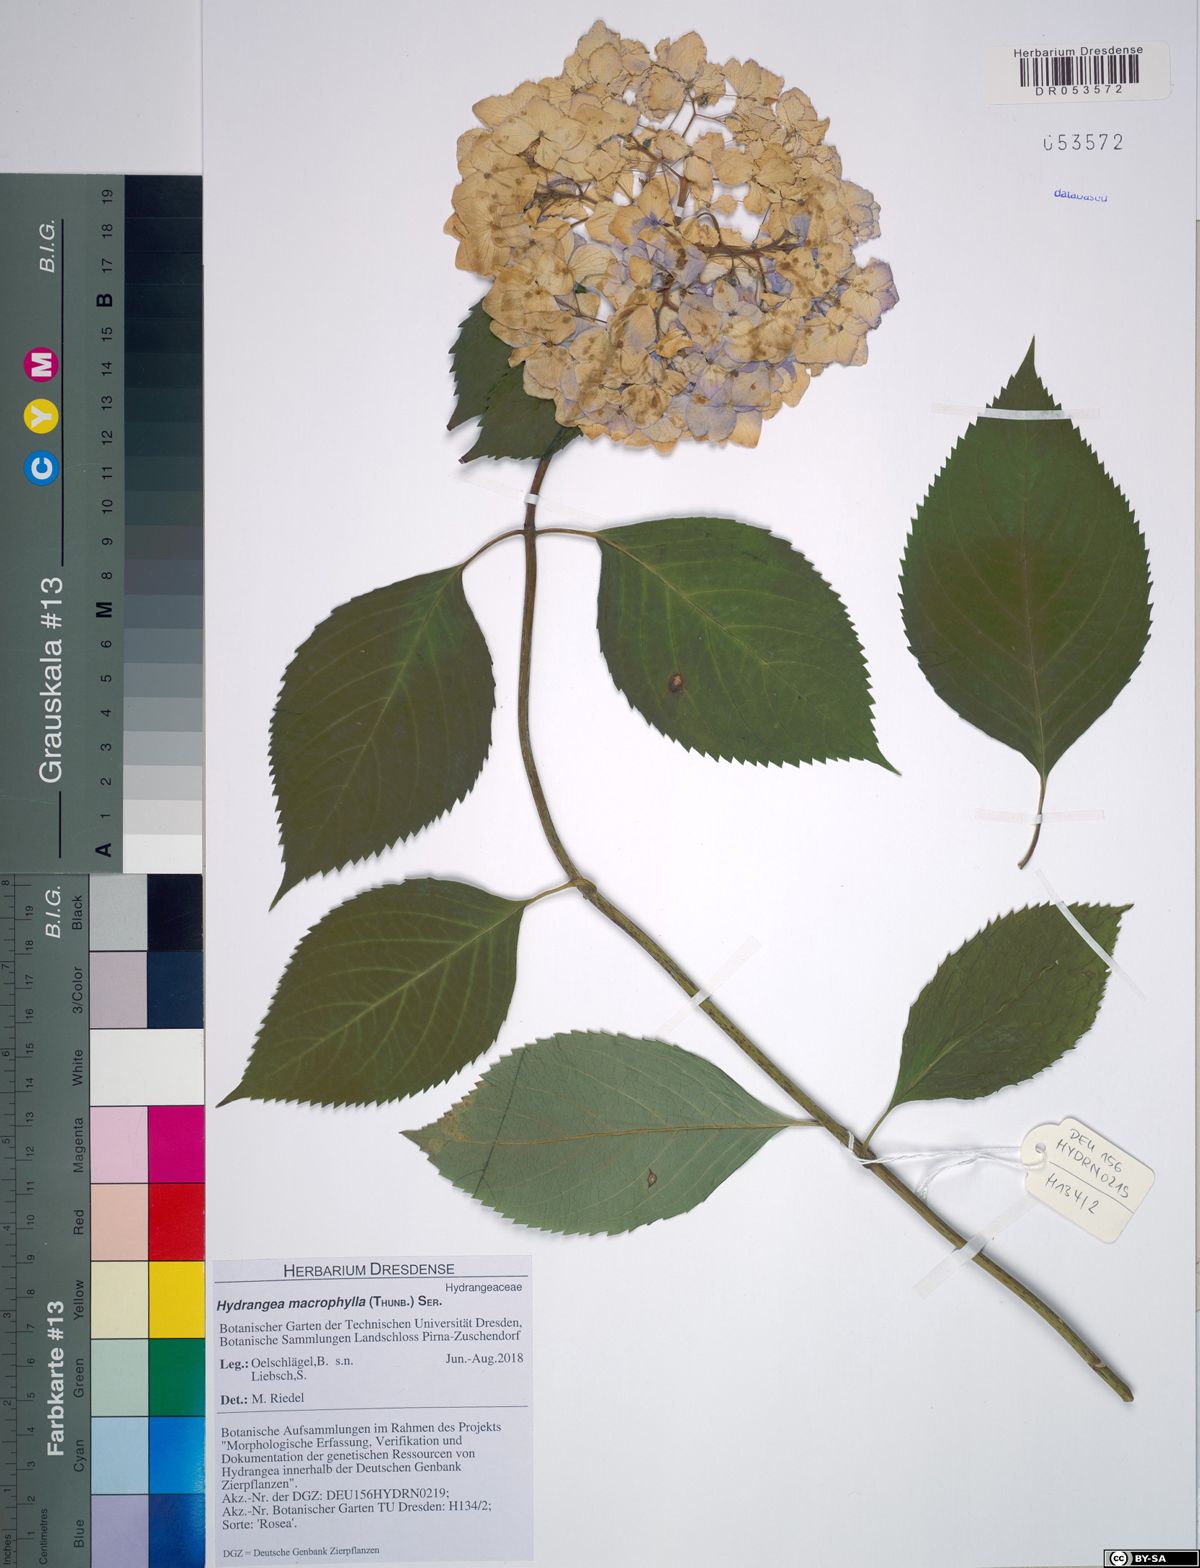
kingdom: Plantae
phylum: Tracheophyta
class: Magnoliopsida
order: Cornales
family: Hydrangeaceae
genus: Hydrangea
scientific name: Hydrangea macrophylla
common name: Hydrangea
